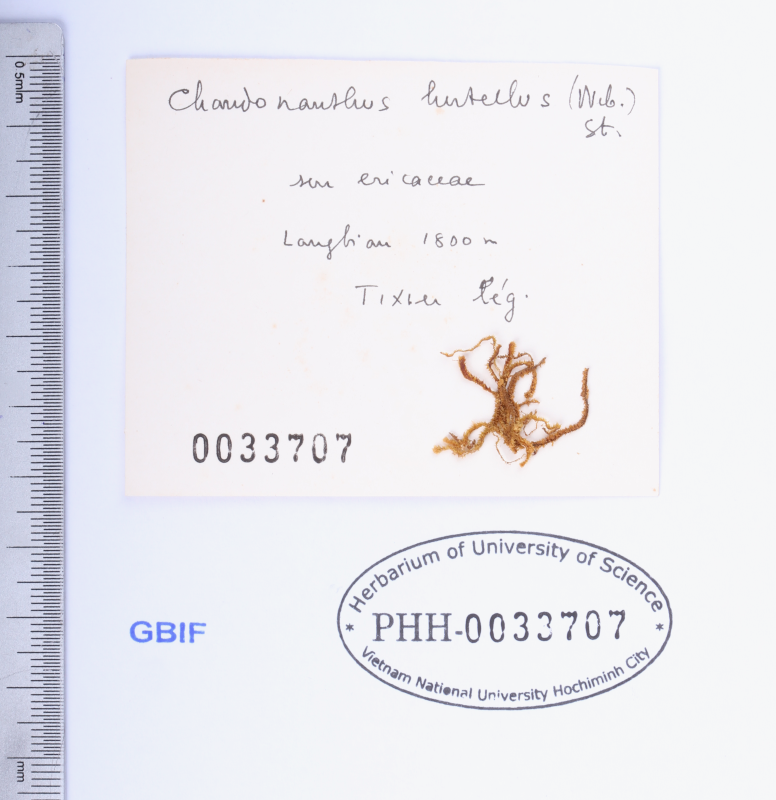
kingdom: Plantae
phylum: Marchantiophyta
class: Jungermanniopsida
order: Jungermanniales
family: Anastrophyllaceae
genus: Plicanthus
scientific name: Plicanthus hirtellus
